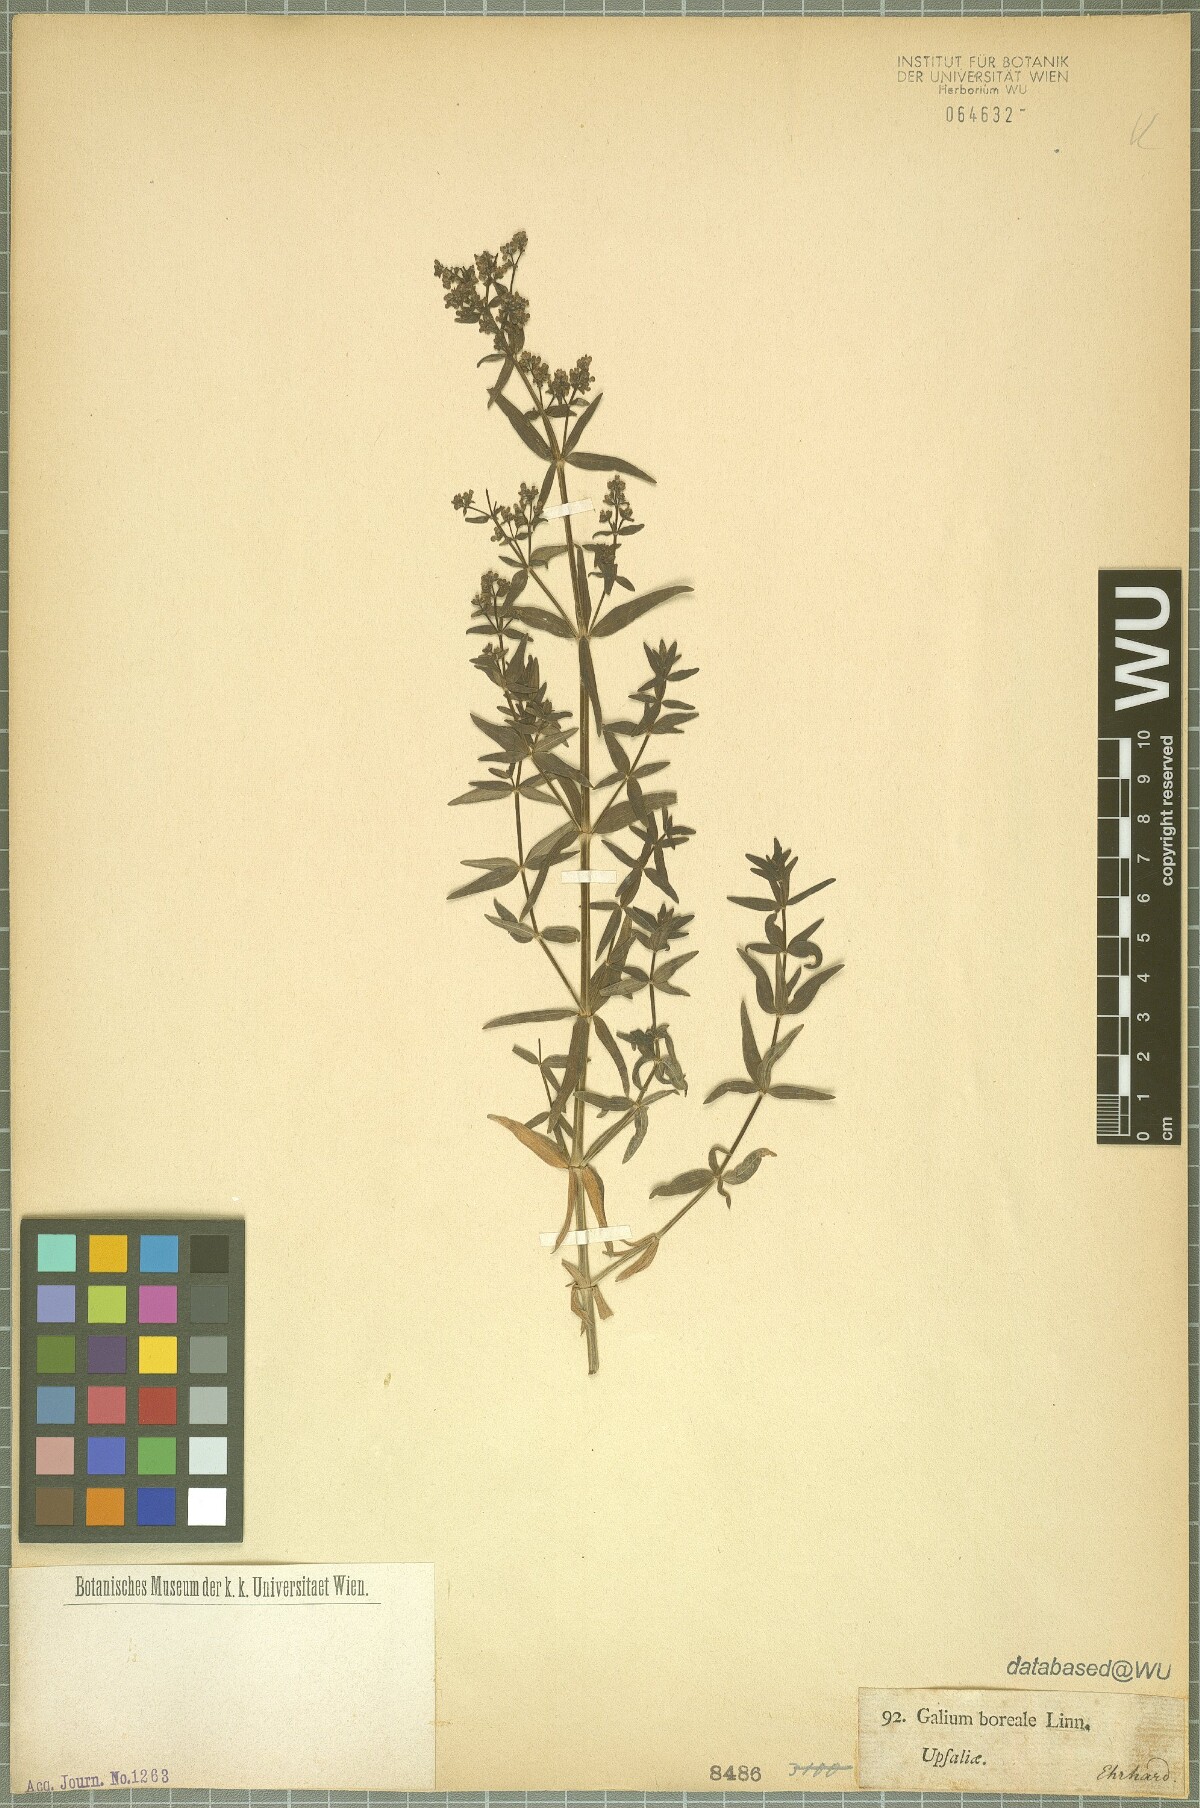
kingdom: Plantae
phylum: Tracheophyta
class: Magnoliopsida
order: Gentianales
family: Rubiaceae
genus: Galium
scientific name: Galium boreale
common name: Northern bedstraw
